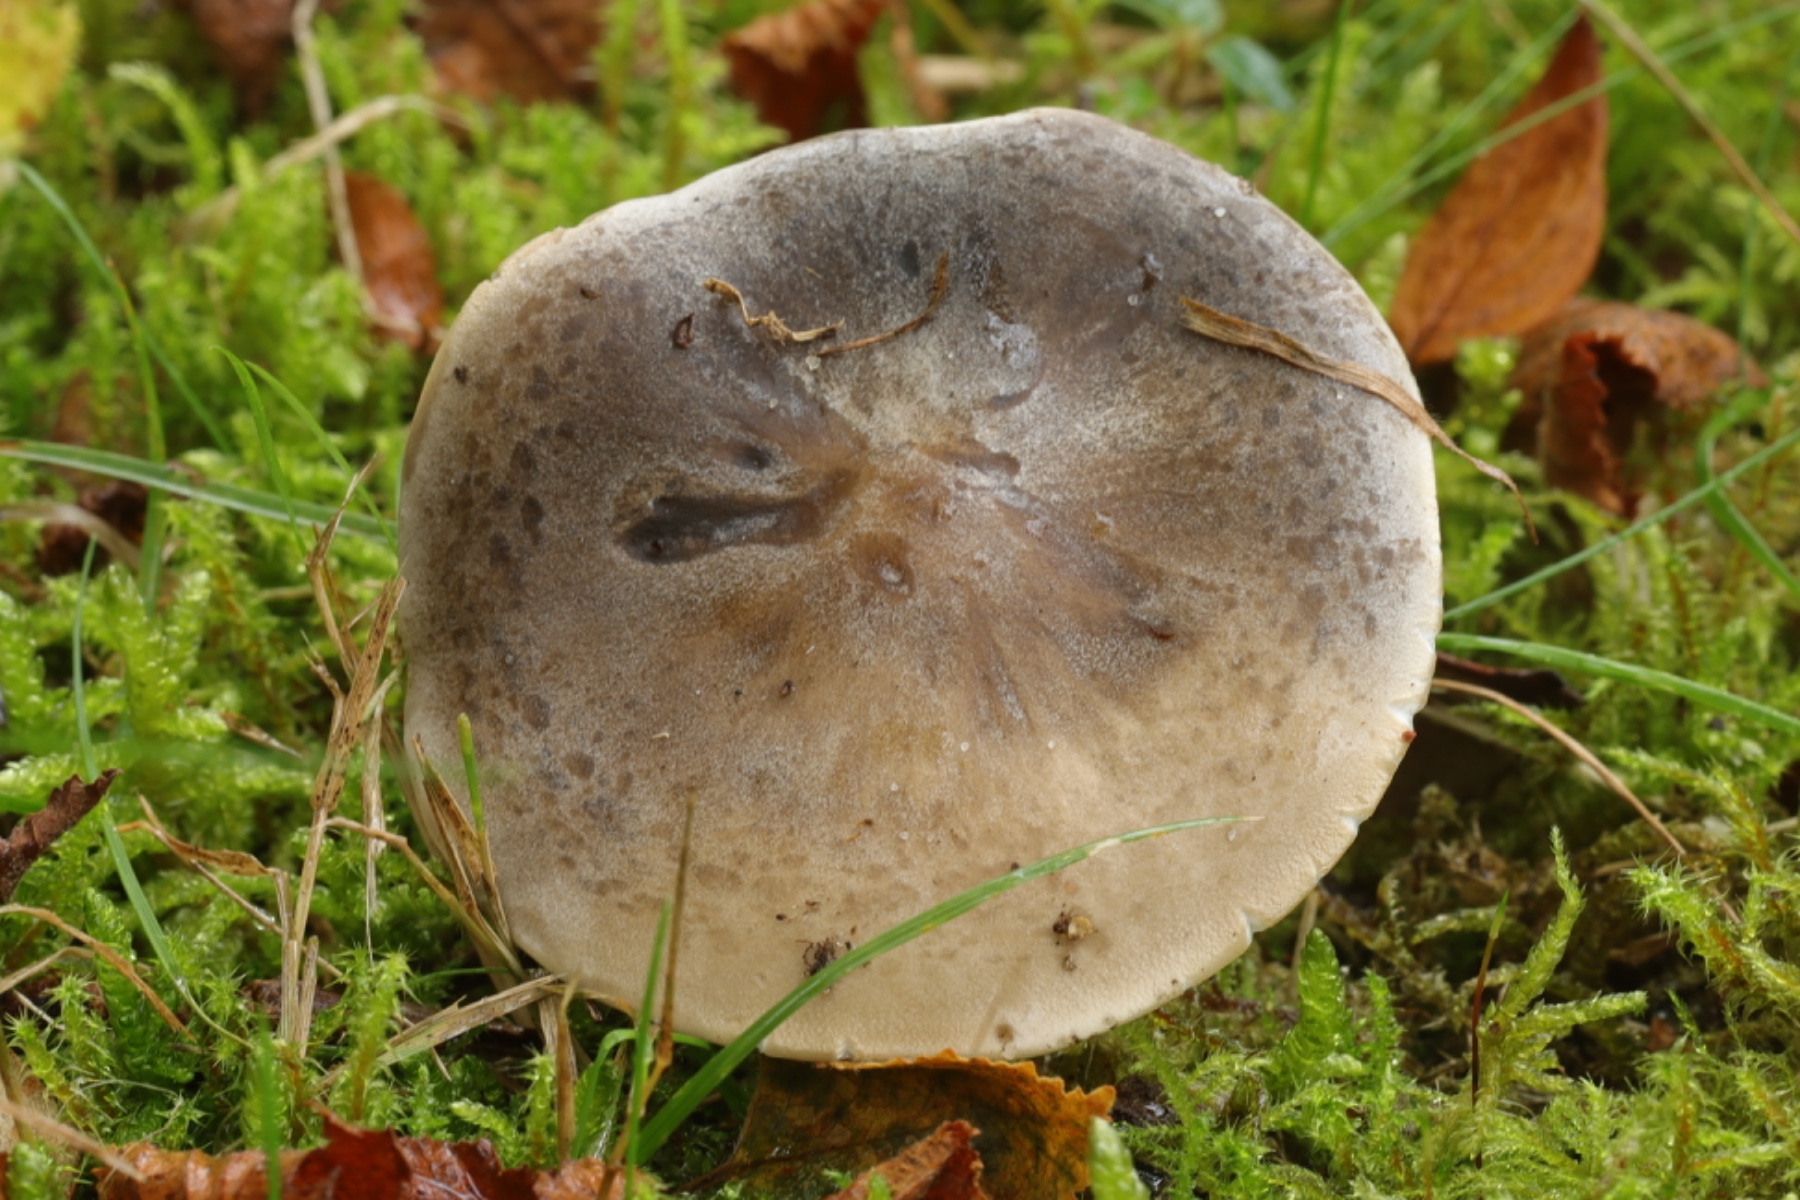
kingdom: Fungi
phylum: Basidiomycota
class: Agaricomycetes
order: Agaricales
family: Tricholomataceae
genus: Lepista
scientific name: Lepista panaeolus
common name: marmoreret hekseringshat
